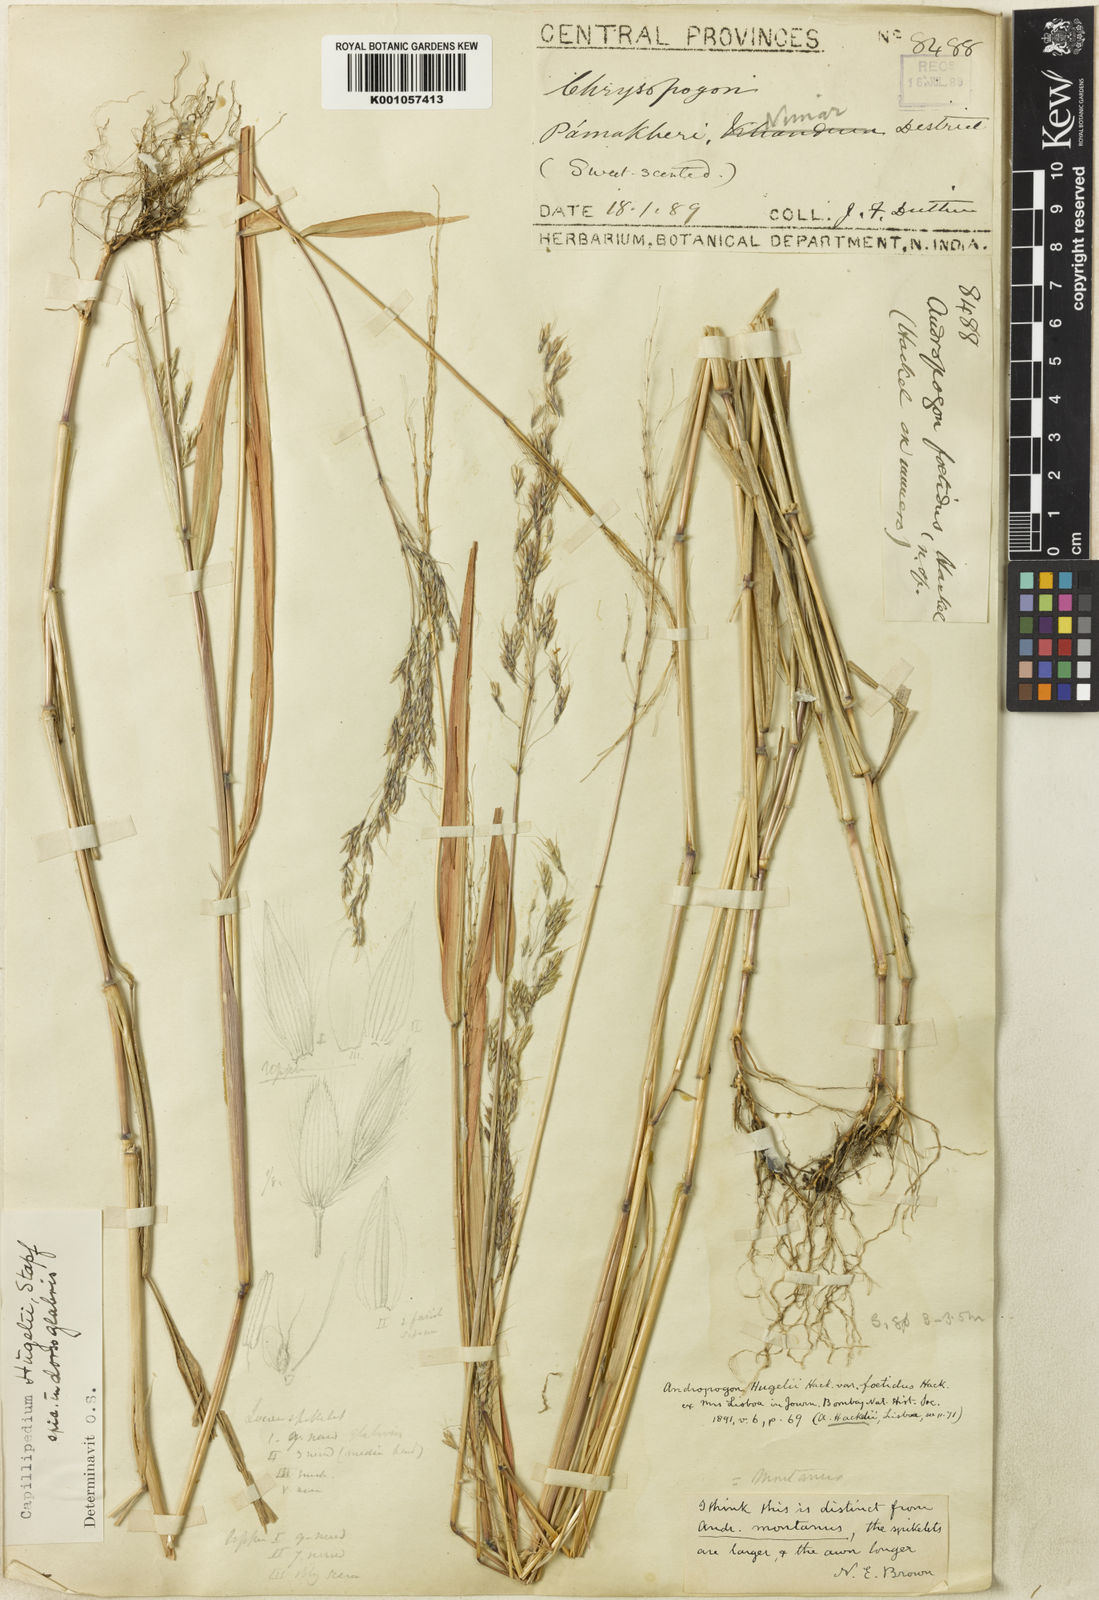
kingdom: Plantae
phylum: Tracheophyta
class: Liliopsida
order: Poales
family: Poaceae
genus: Capillipedium
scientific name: Capillipedium
